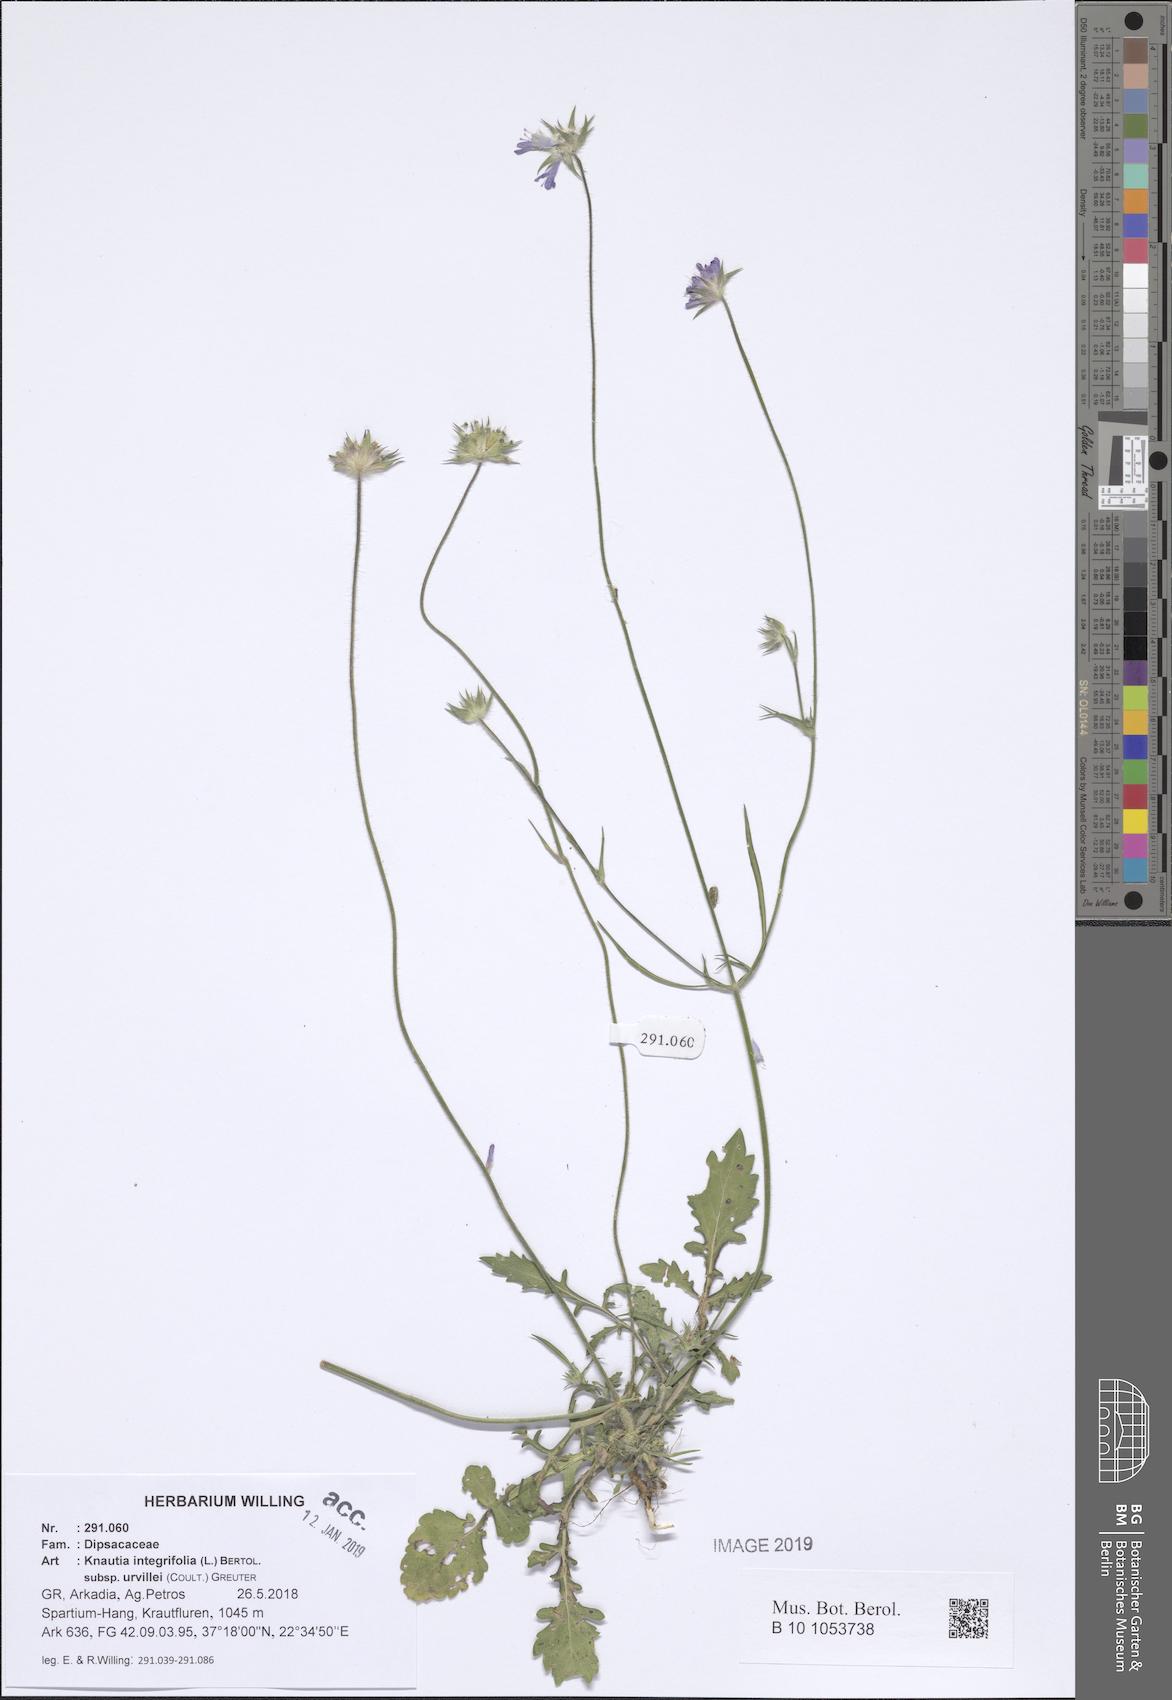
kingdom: Plantae
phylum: Tracheophyta
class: Magnoliopsida
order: Dipsacales
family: Caprifoliaceae
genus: Knautia
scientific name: Knautia integrifolia
